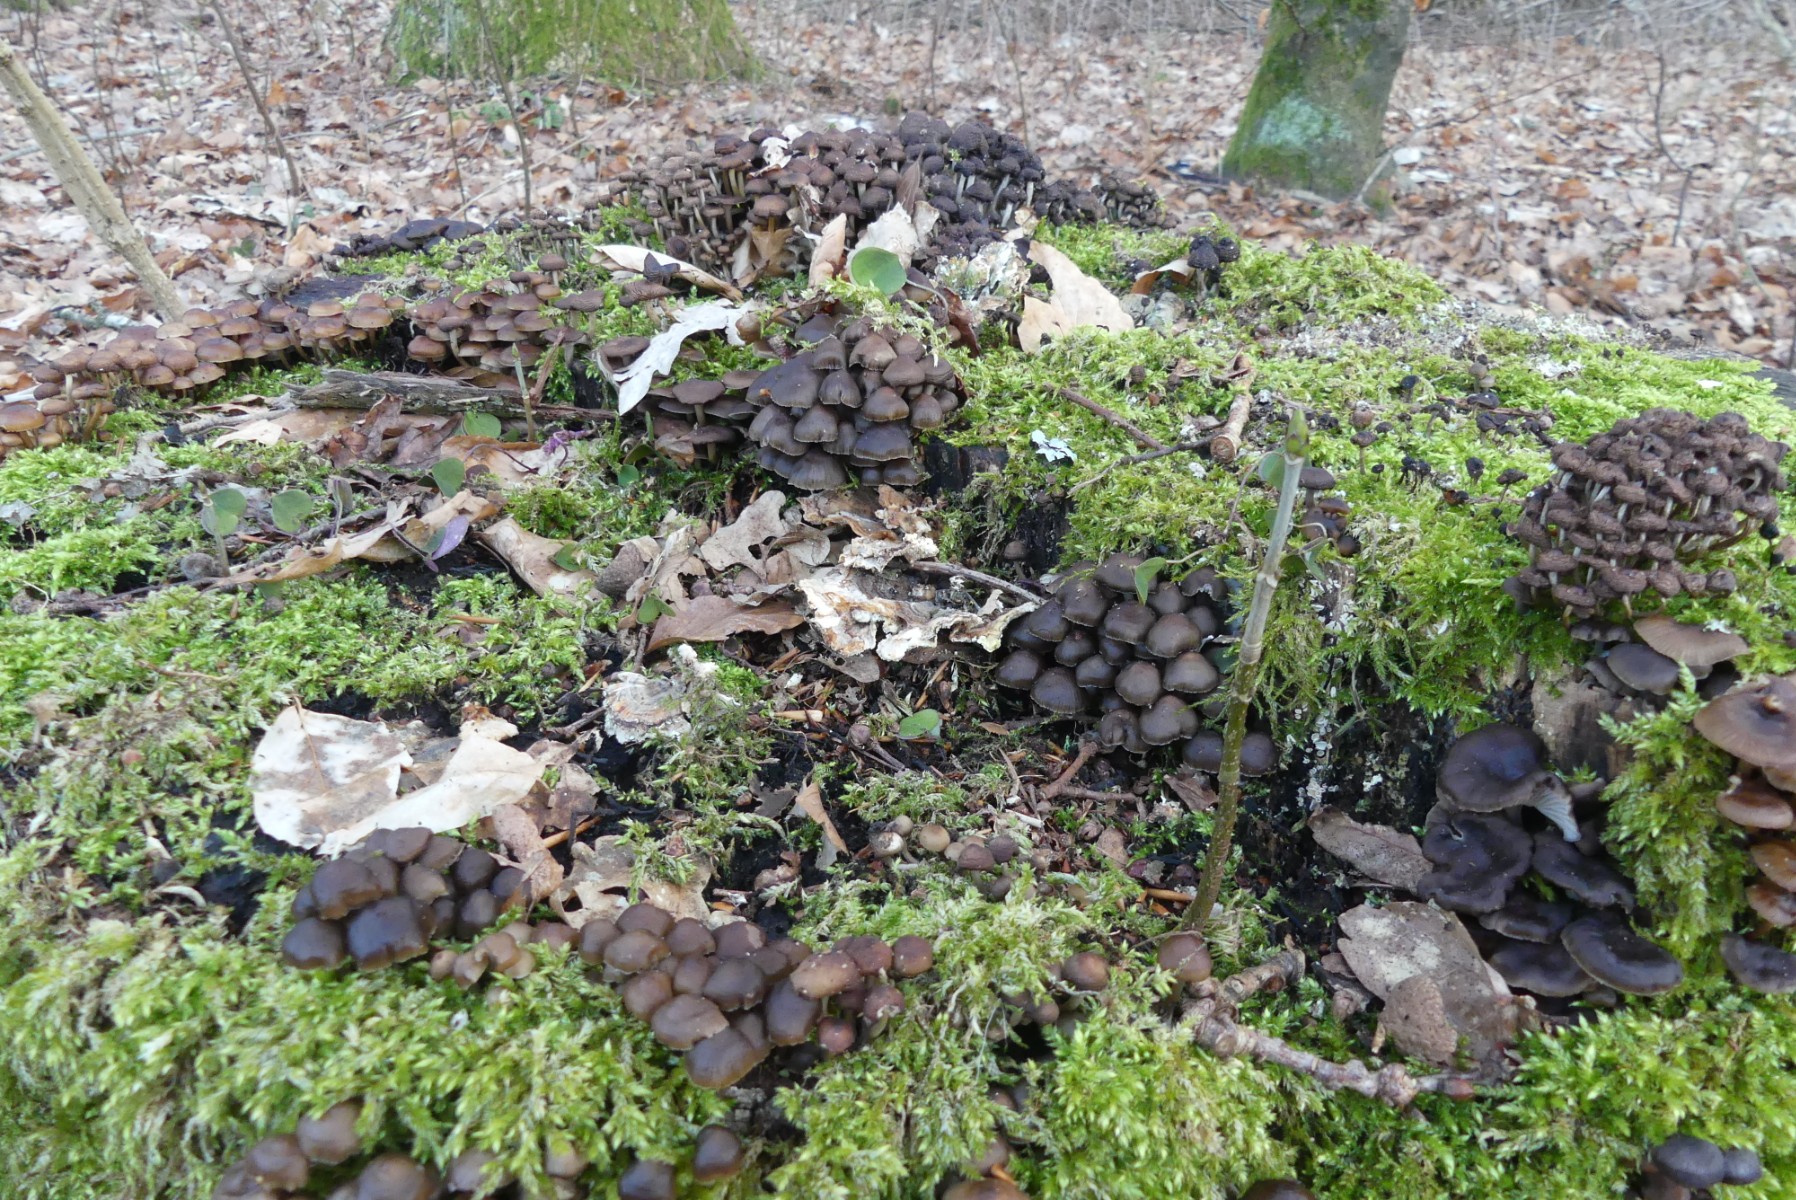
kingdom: Fungi
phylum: Basidiomycota
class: Agaricomycetes
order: Agaricales
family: Mycenaceae
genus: Mycena
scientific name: Mycena tintinnabulum
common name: vinter-huesvamp
